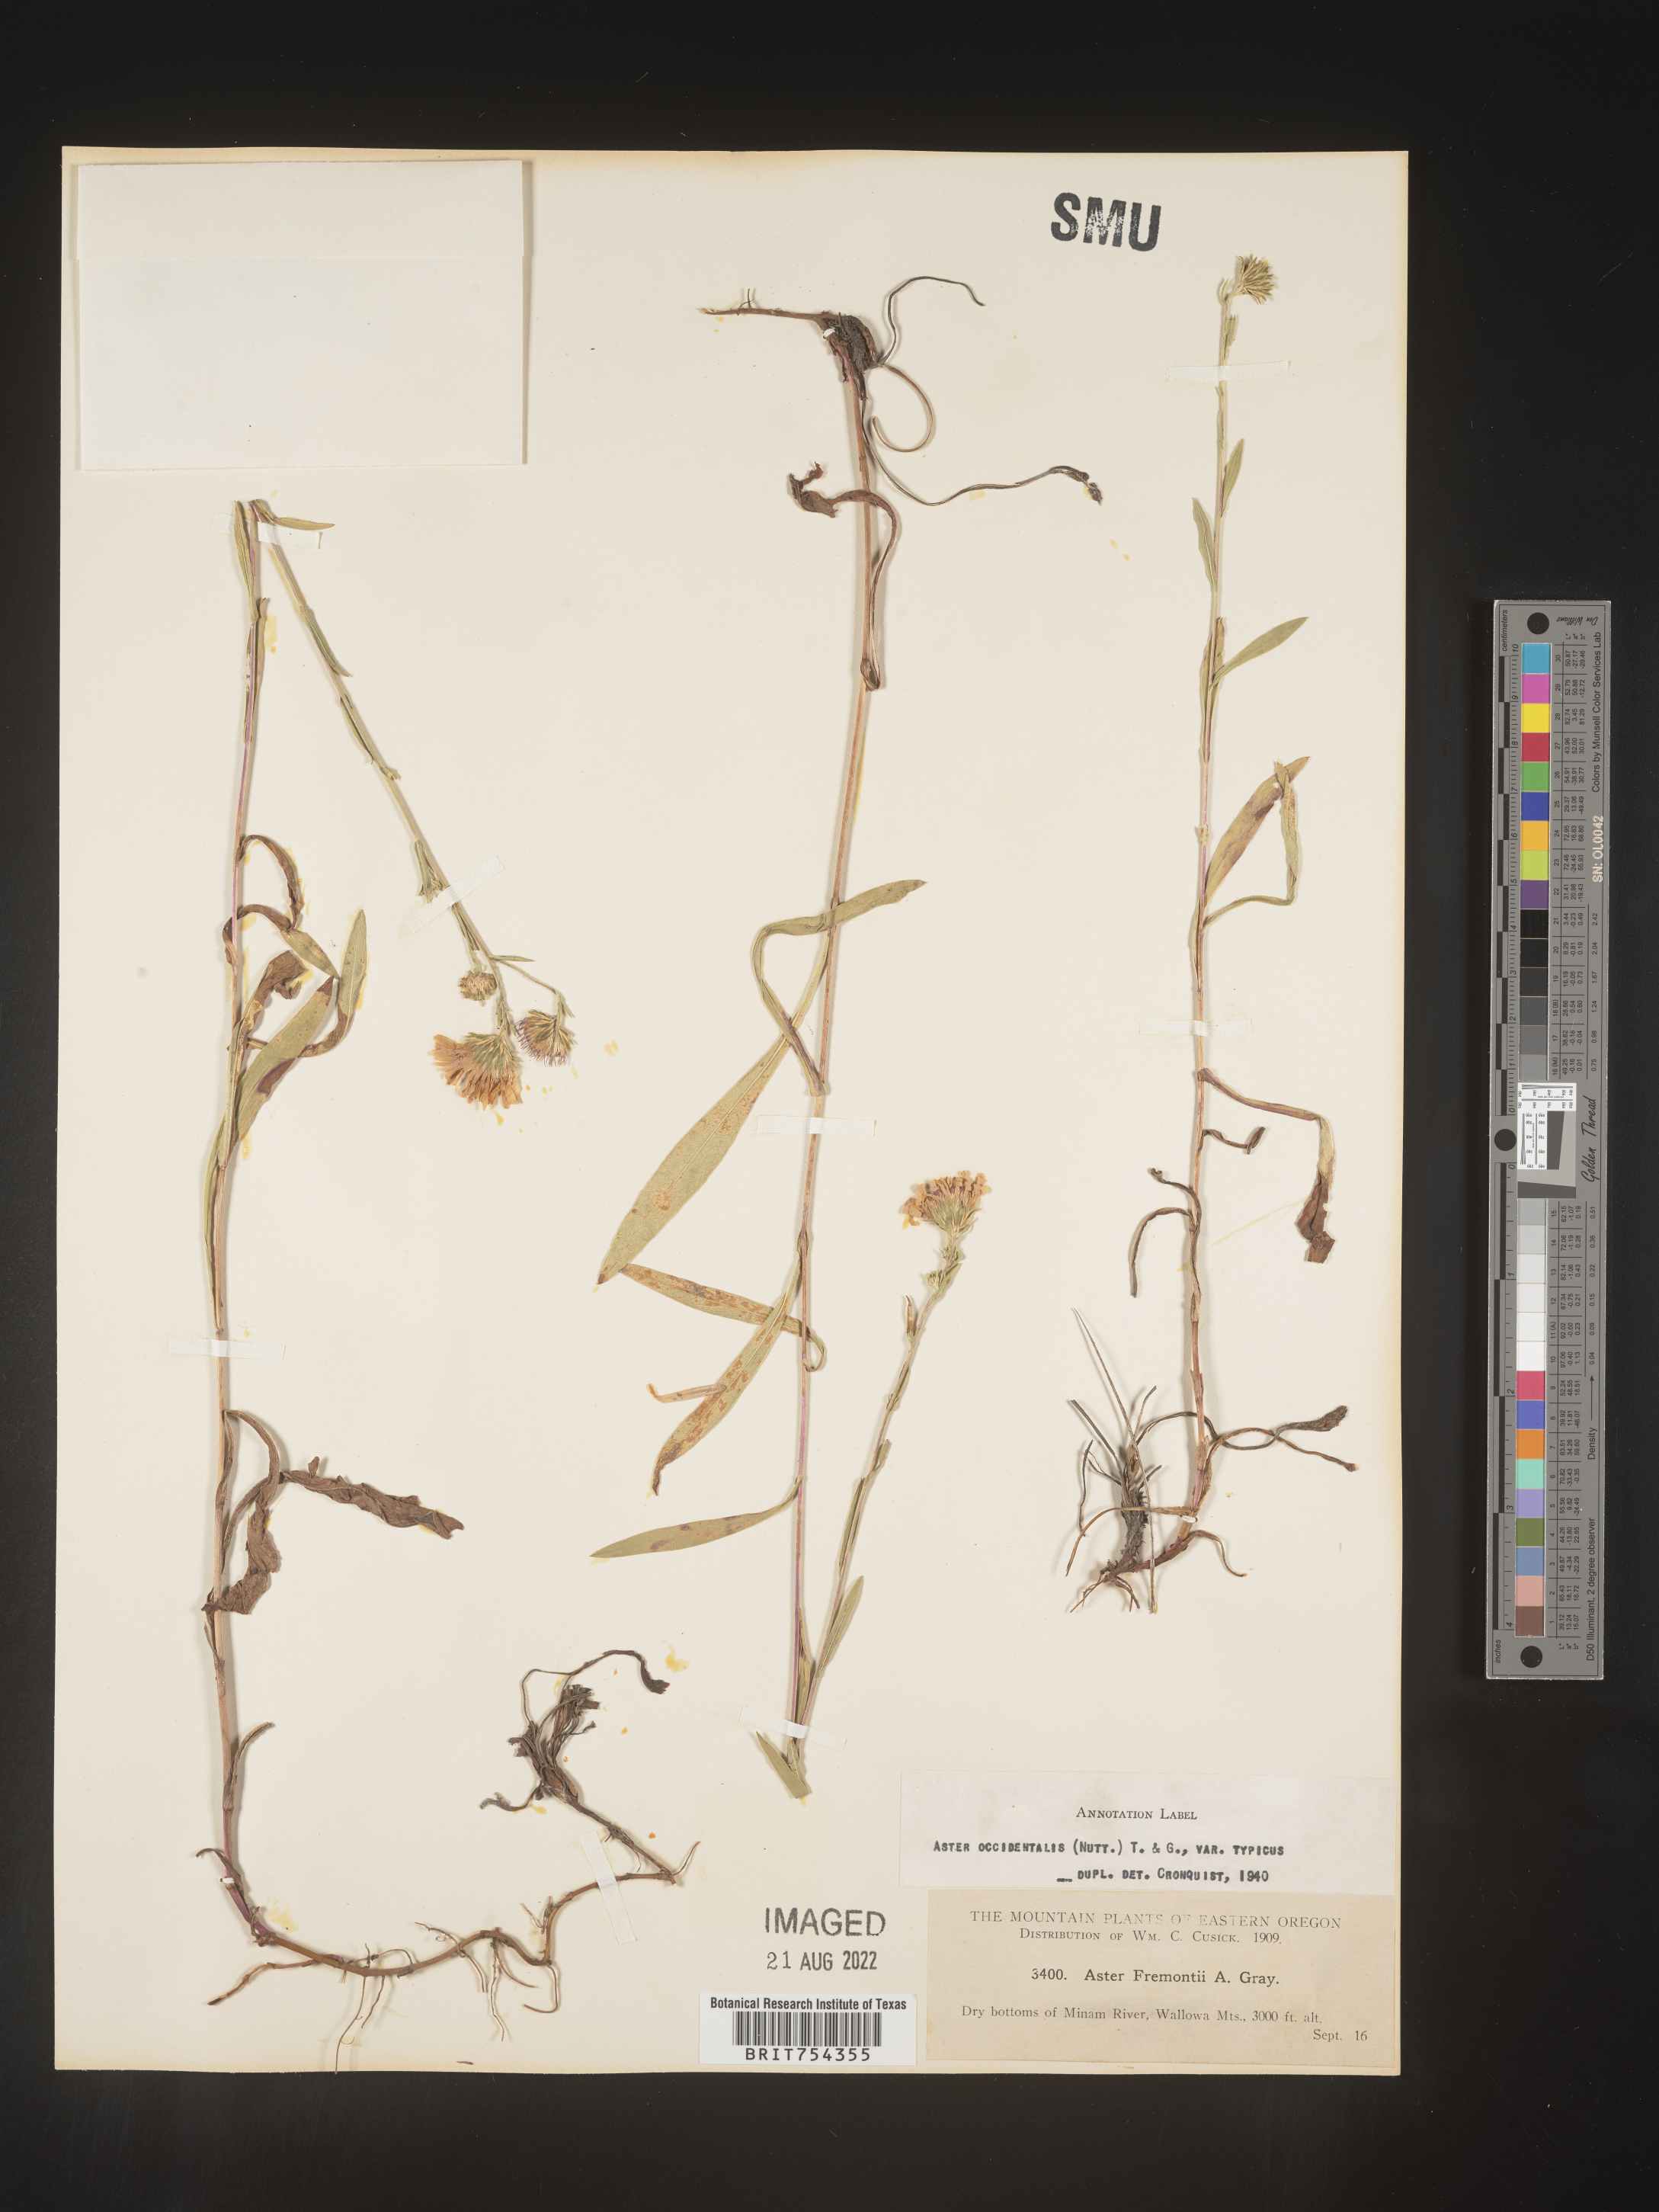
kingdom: Plantae
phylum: Tracheophyta
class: Magnoliopsida
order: Asterales
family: Asteraceae
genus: Symphyotrichum
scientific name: Symphyotrichum spathulatum
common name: Western mountain aster
